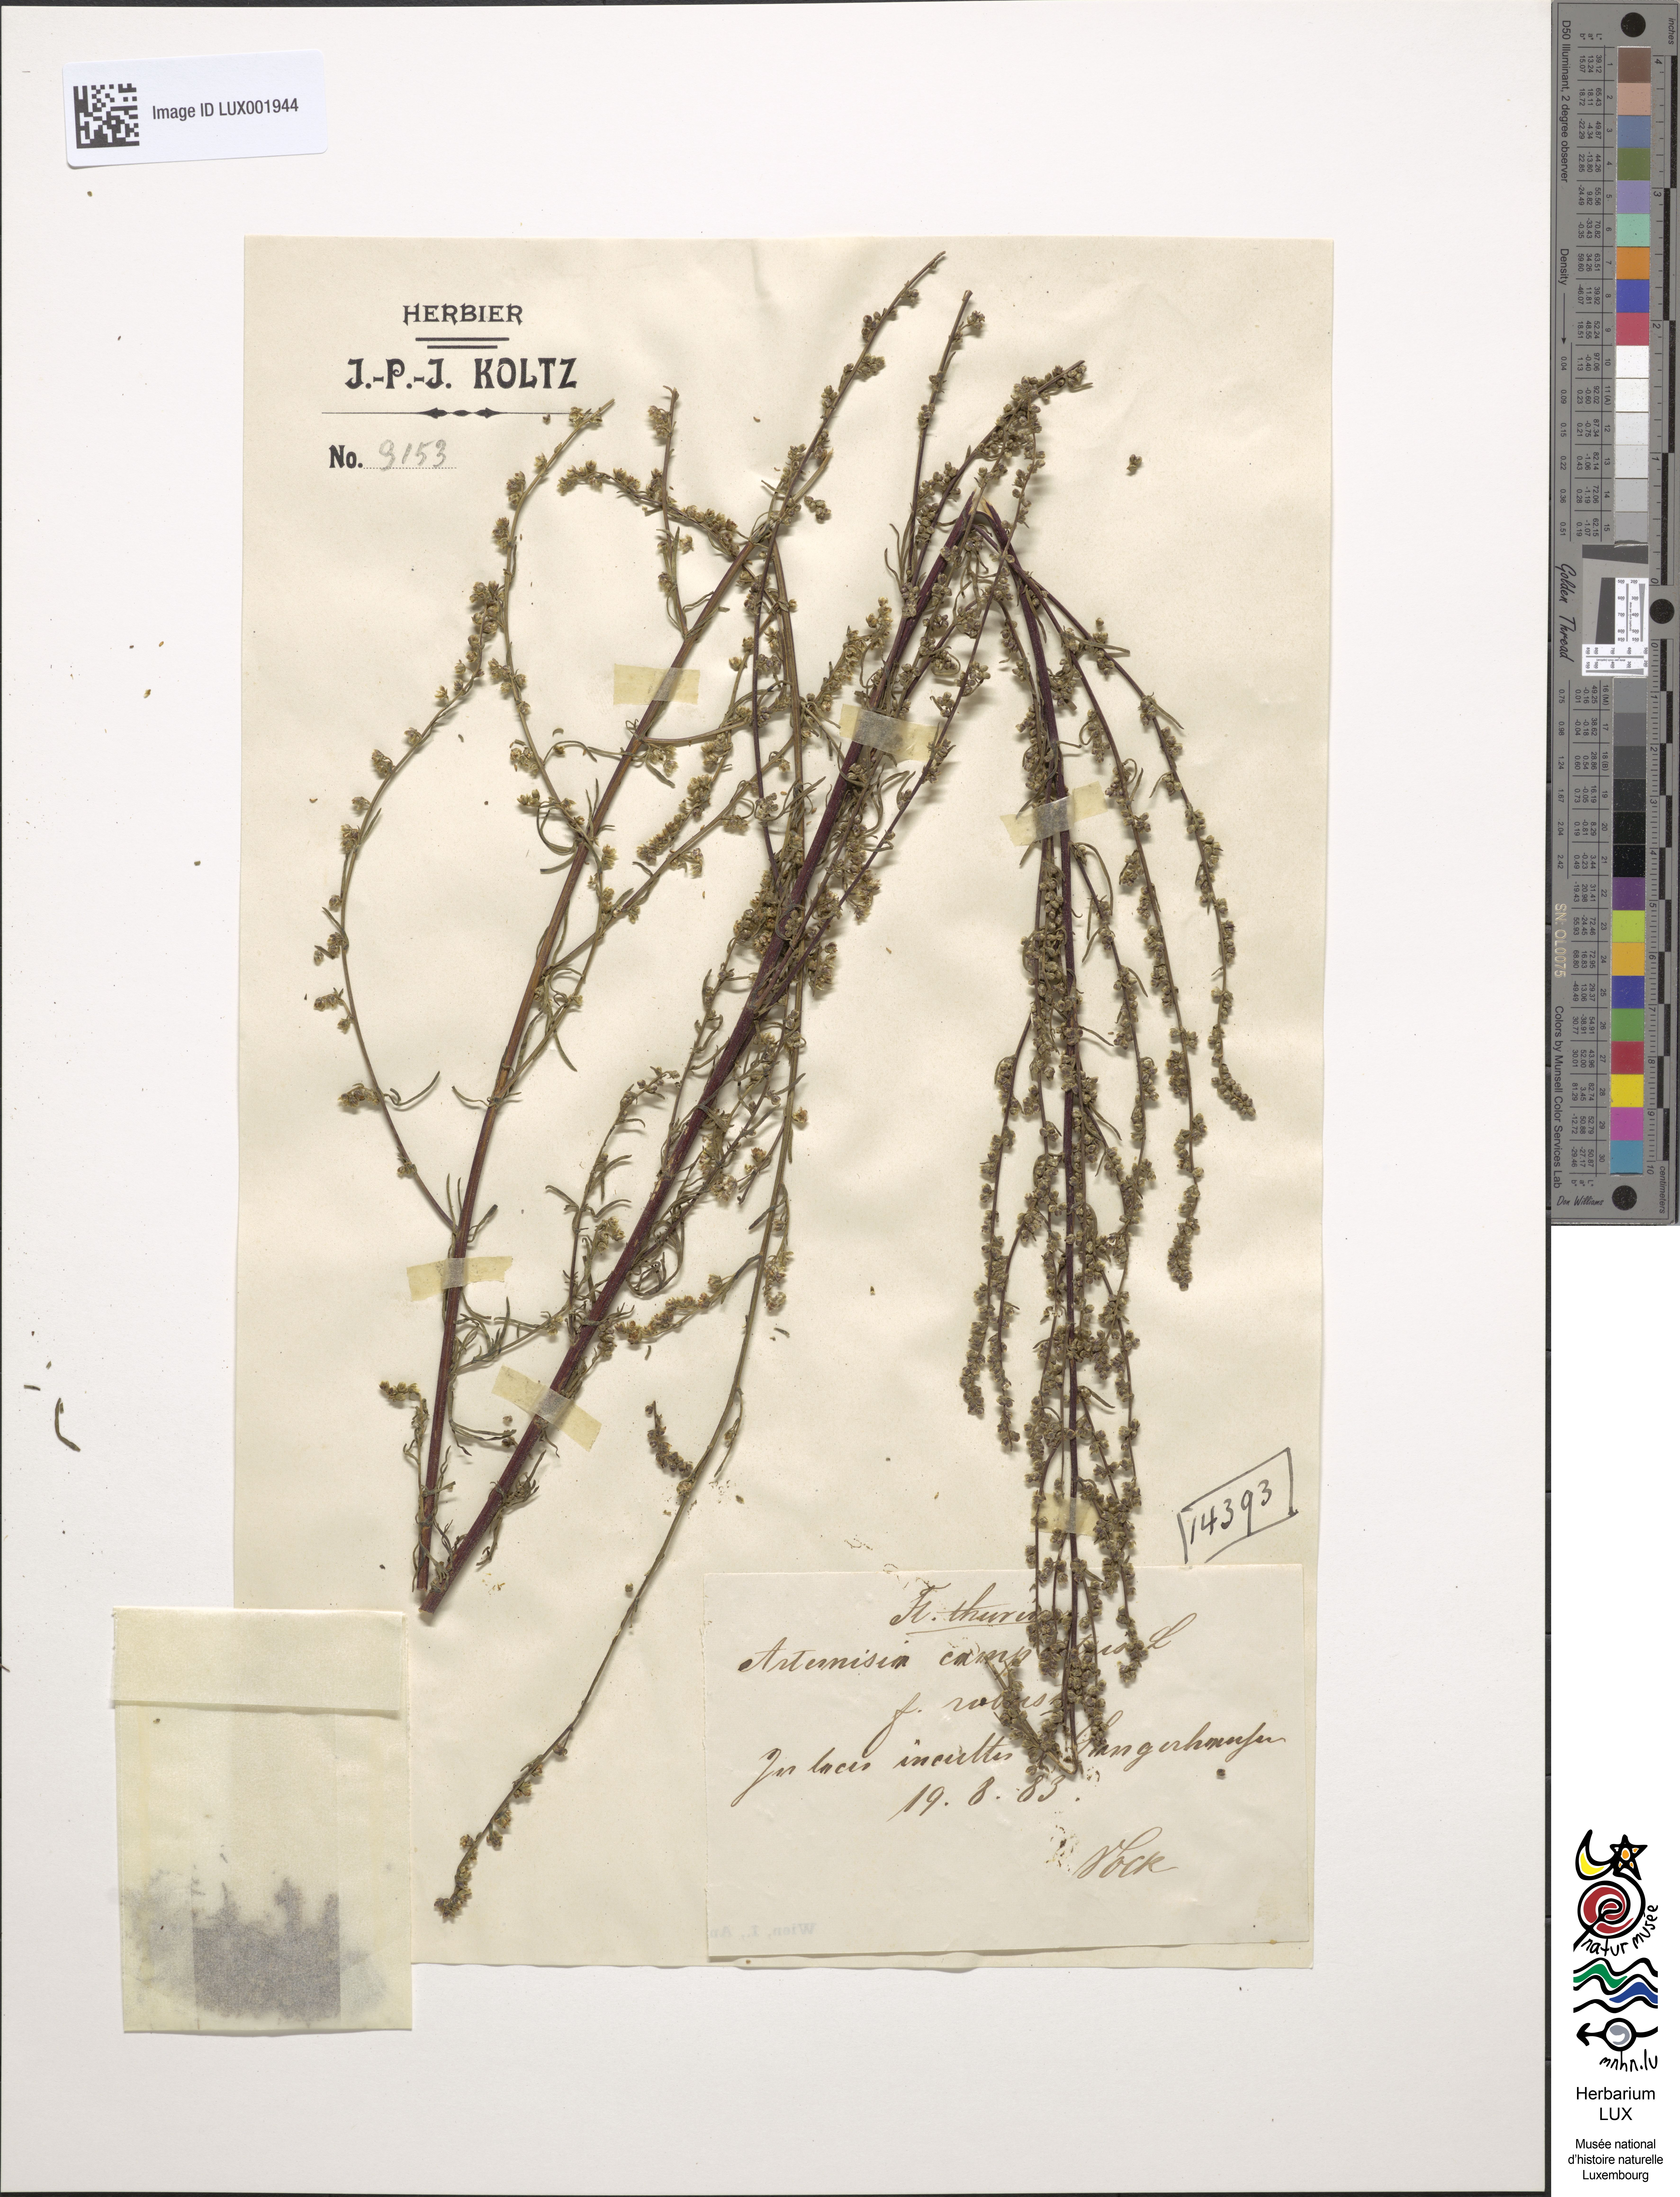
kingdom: Plantae
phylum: Tracheophyta
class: Magnoliopsida
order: Asterales
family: Asteraceae
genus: Artemisia
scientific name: Artemisia campestris
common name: Field wormwood
